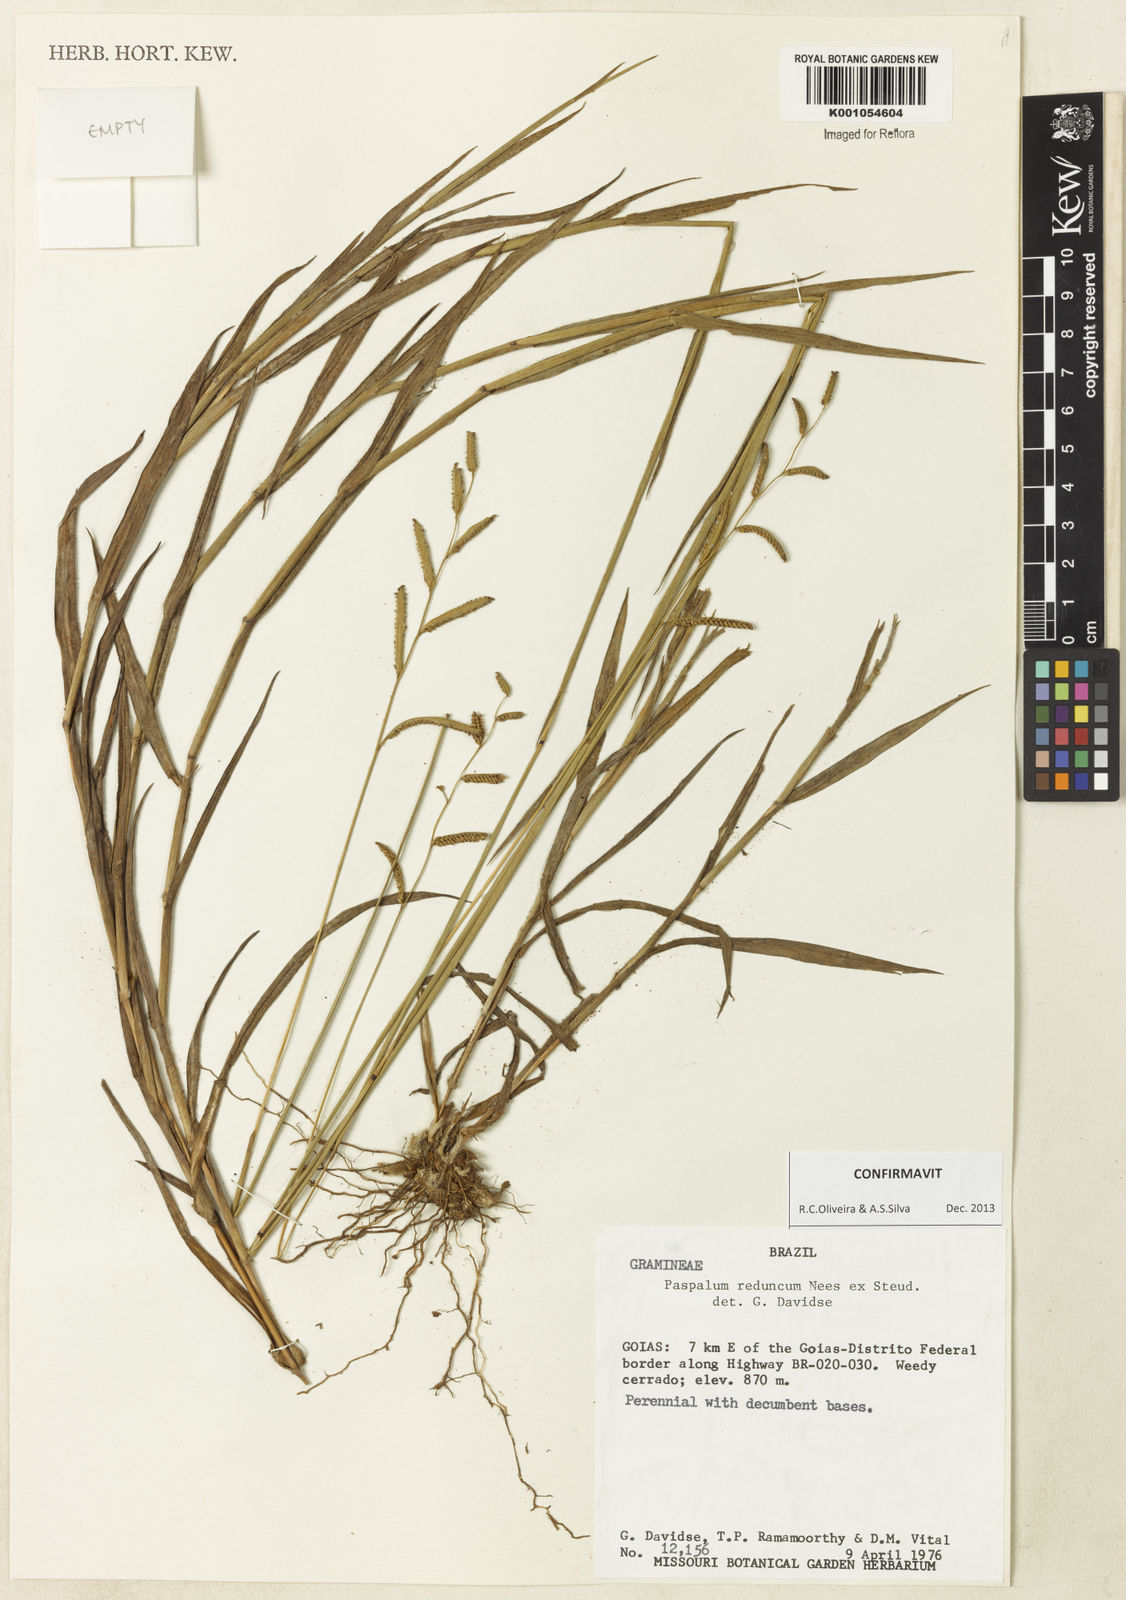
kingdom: Plantae
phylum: Tracheophyta
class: Liliopsida
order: Poales
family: Poaceae
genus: Paspalum
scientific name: Paspalum reduncum
